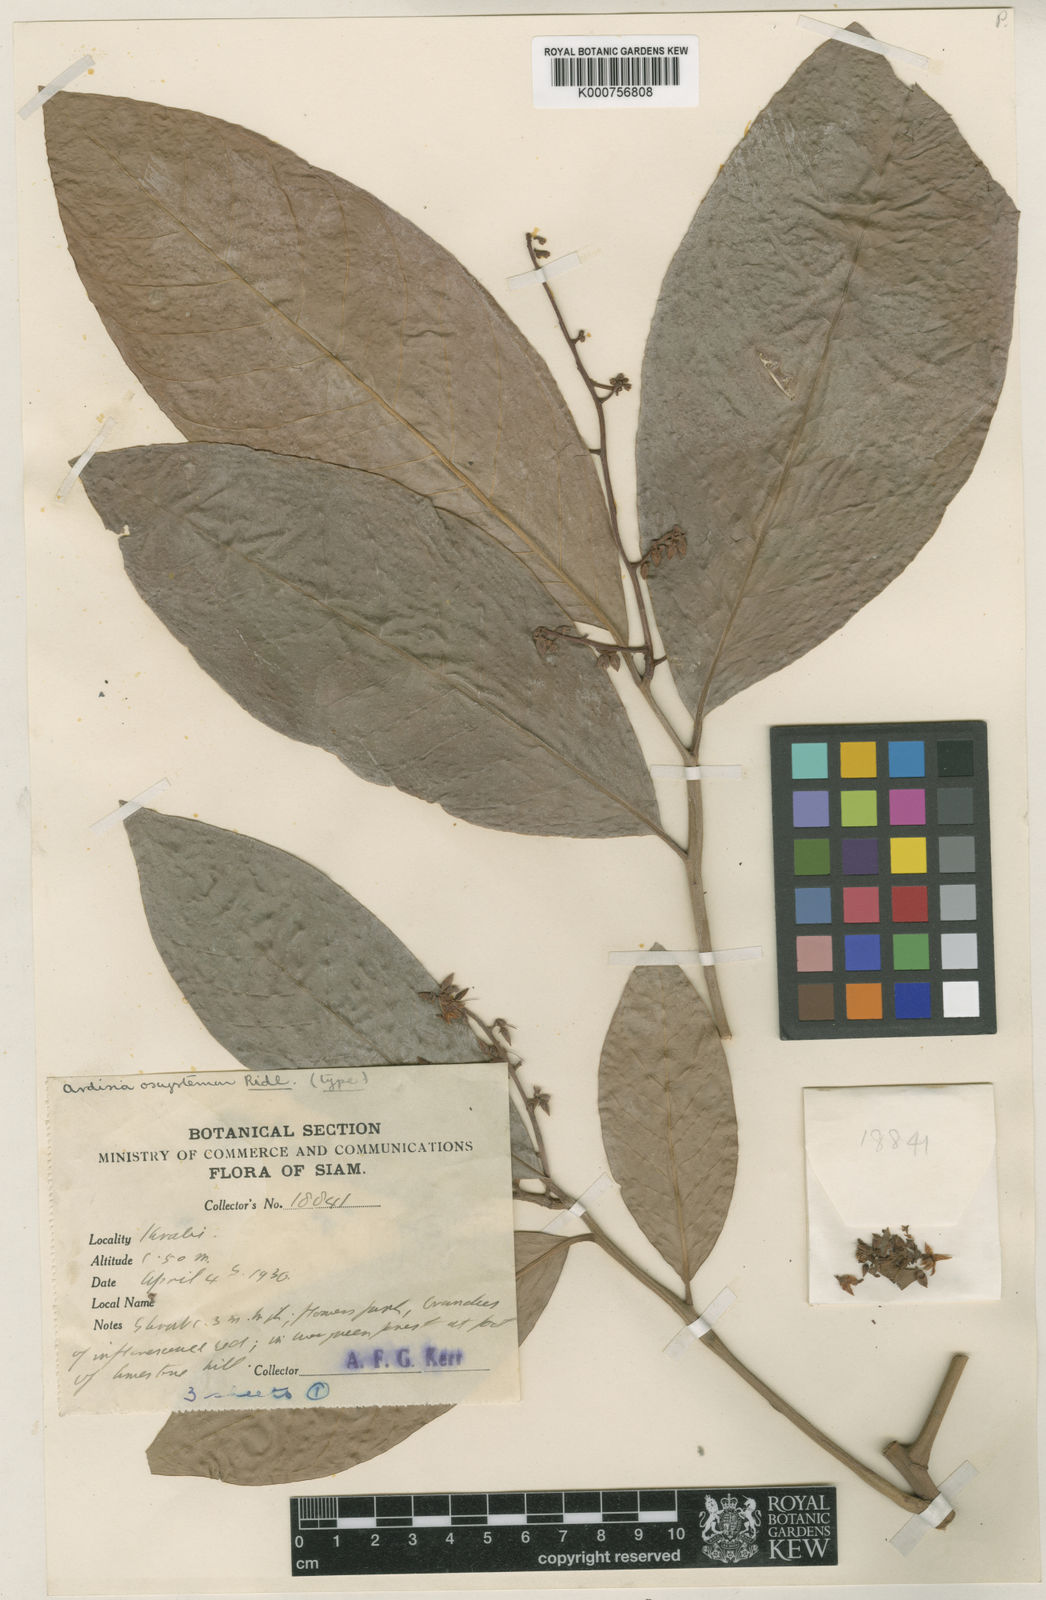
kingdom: Plantae
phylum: Tracheophyta
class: Magnoliopsida
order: Ericales
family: Primulaceae
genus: Ardisia
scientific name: Ardisia rigida
